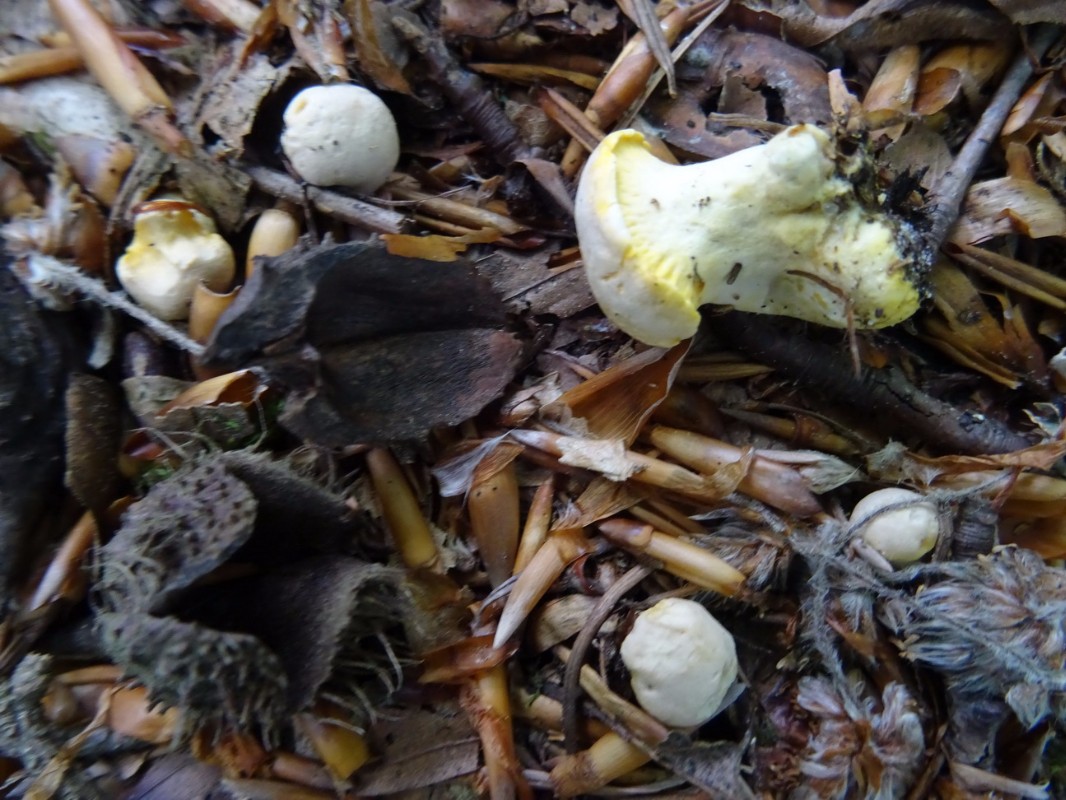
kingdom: Fungi
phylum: Basidiomycota
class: Agaricomycetes
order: Cantharellales
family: Hydnaceae
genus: Cantharellus
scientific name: Cantharellus pallens
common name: bleg kantarel
